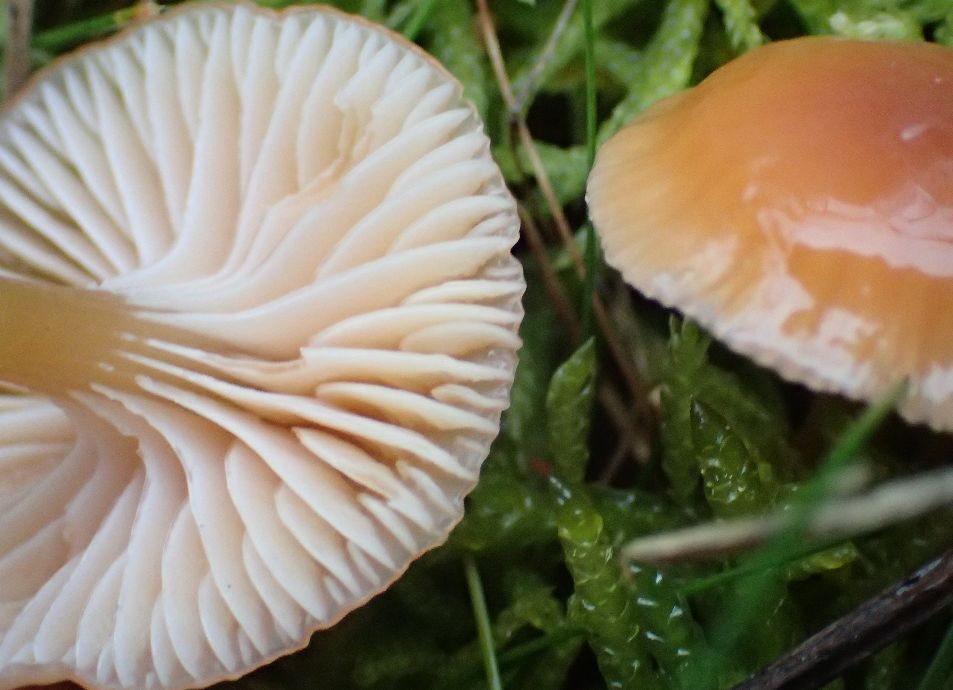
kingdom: Fungi
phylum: Basidiomycota
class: Agaricomycetes
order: Agaricales
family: Hygrophoraceae
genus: Gliophorus
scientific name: Gliophorus laetus
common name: brusk-vokshat
